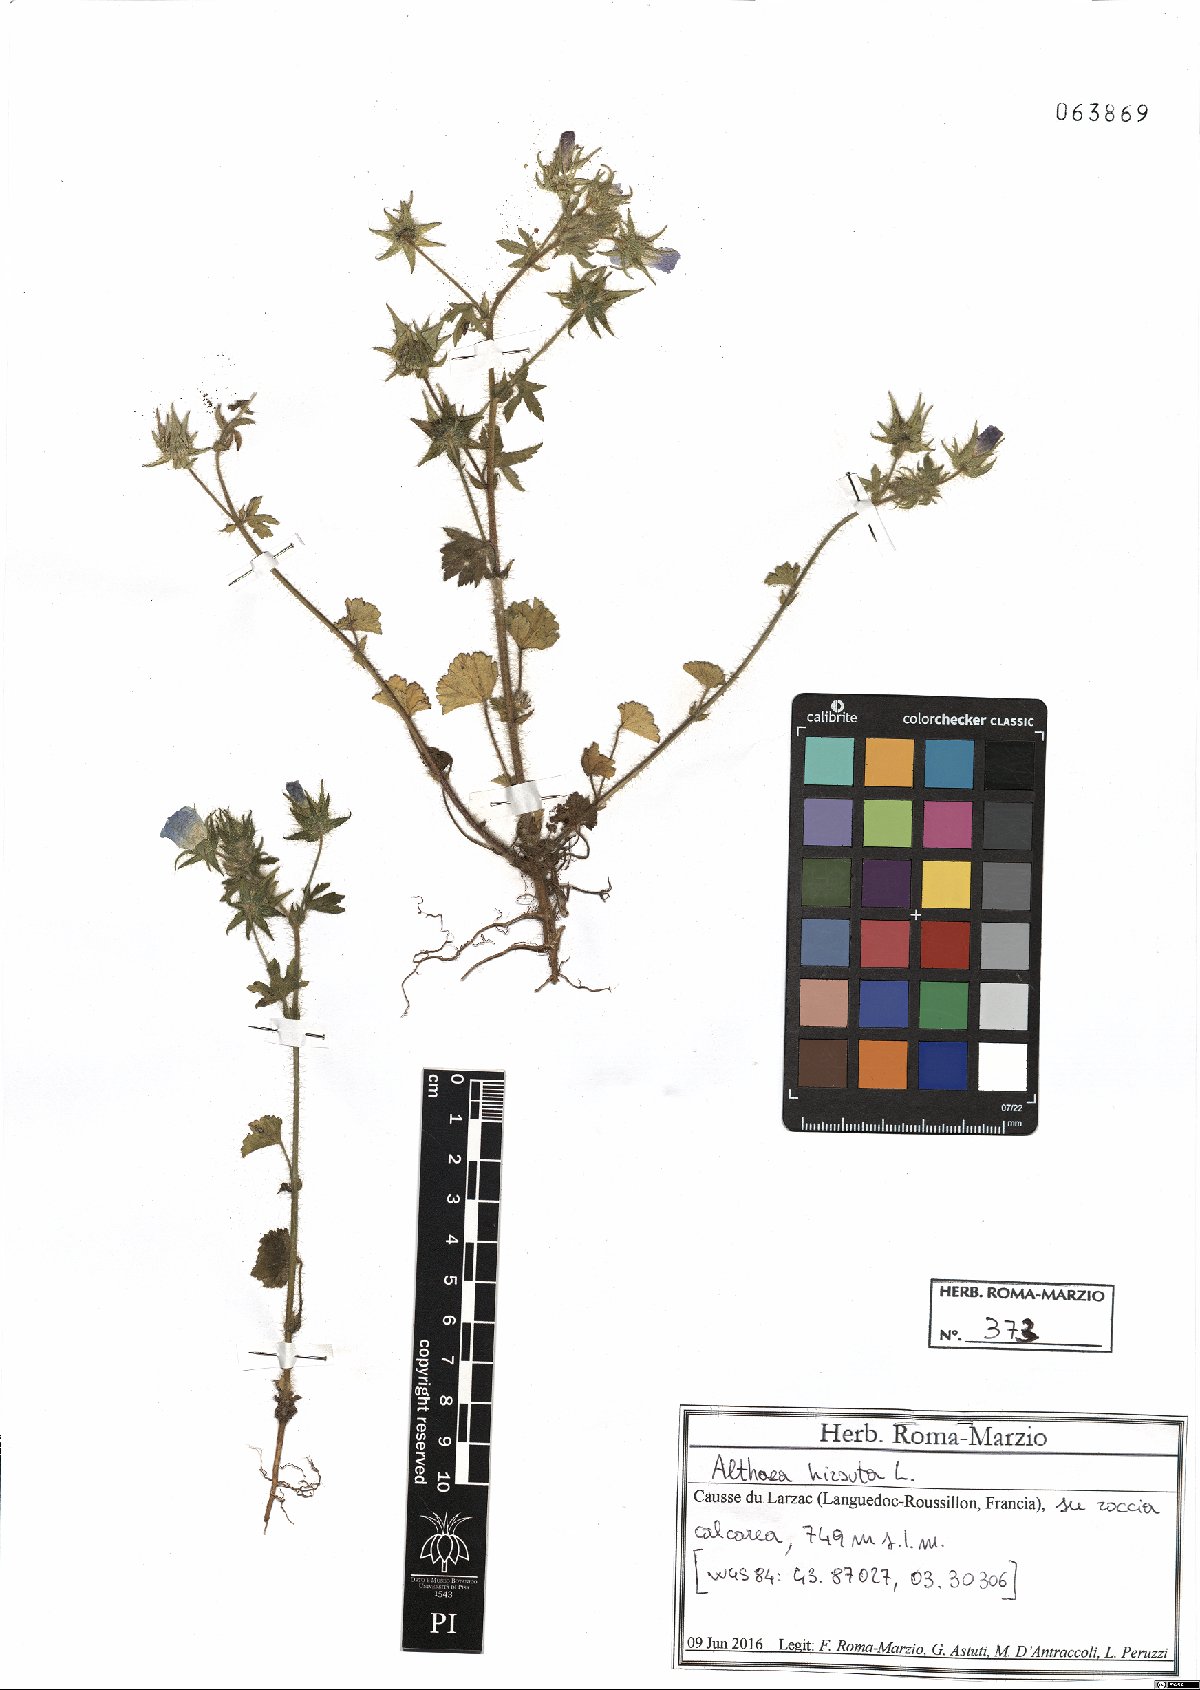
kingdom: Plantae
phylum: Tracheophyta
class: Magnoliopsida
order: Malvales
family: Malvaceae
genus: Althaea
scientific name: Althaea hirsuta
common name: Rough marsh-mallow
